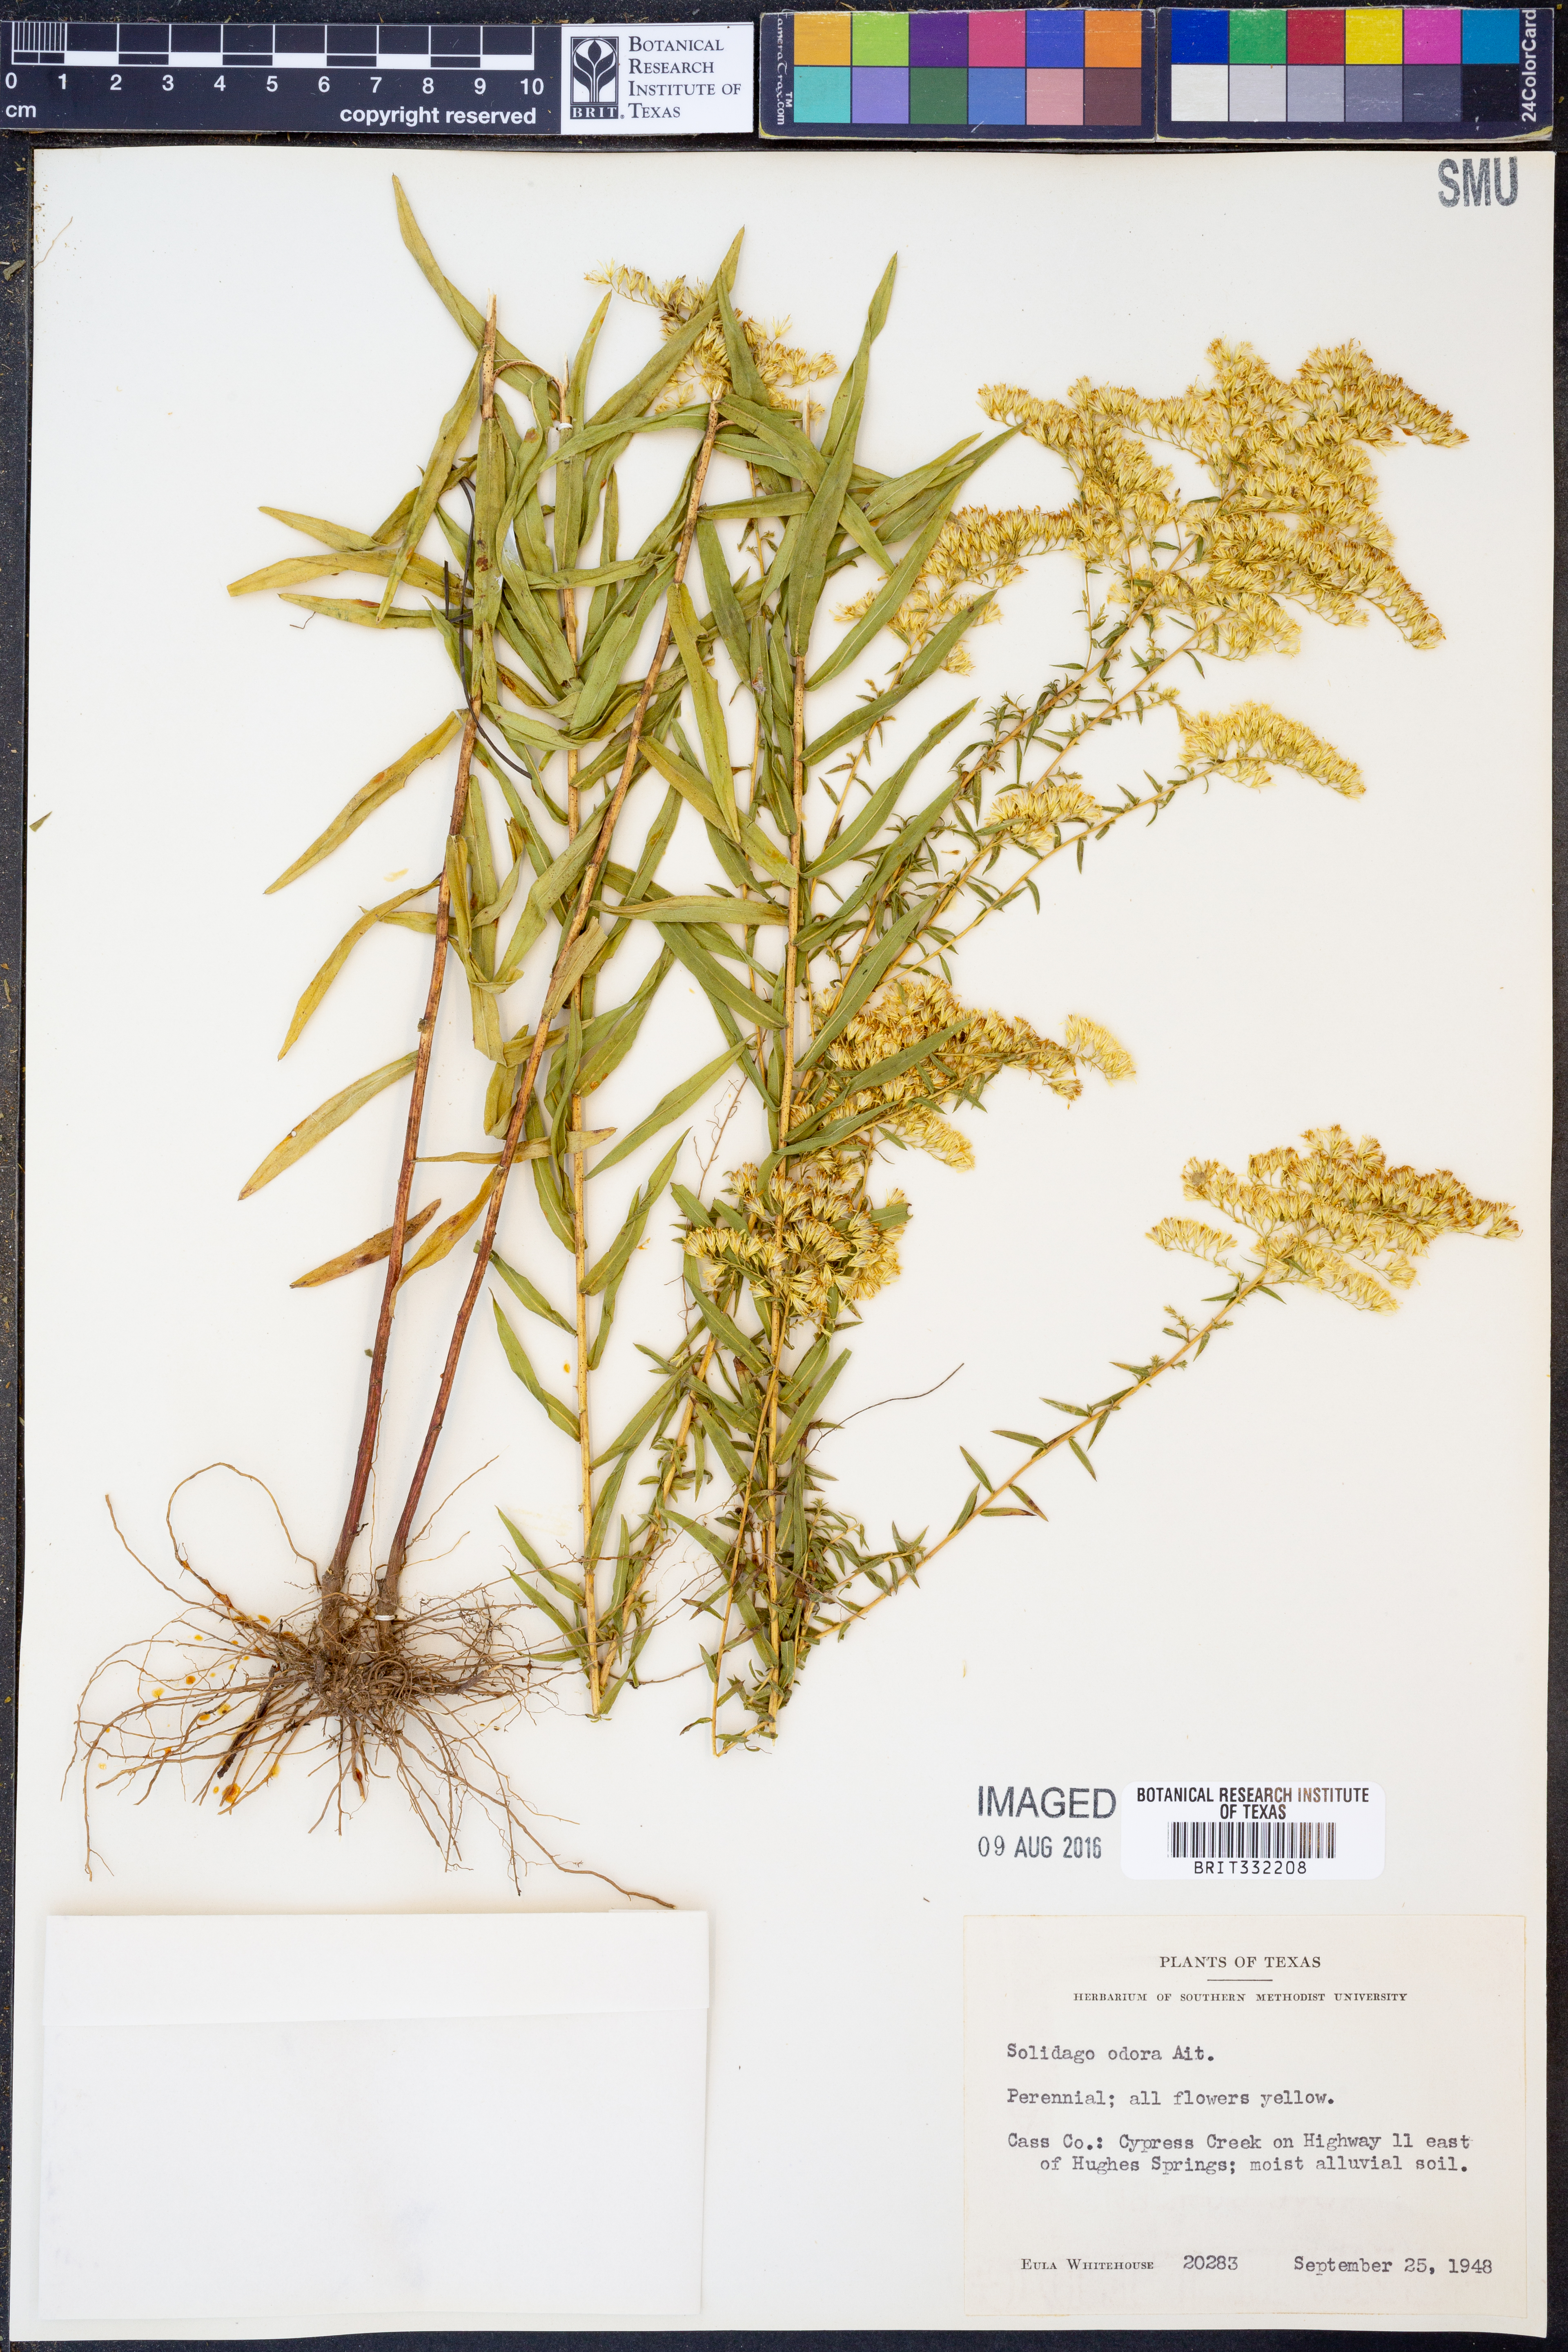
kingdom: Plantae
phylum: Tracheophyta
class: Magnoliopsida
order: Asterales
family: Asteraceae
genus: Solidago
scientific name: Solidago rugosa
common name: Rough-stemmed goldenrod
